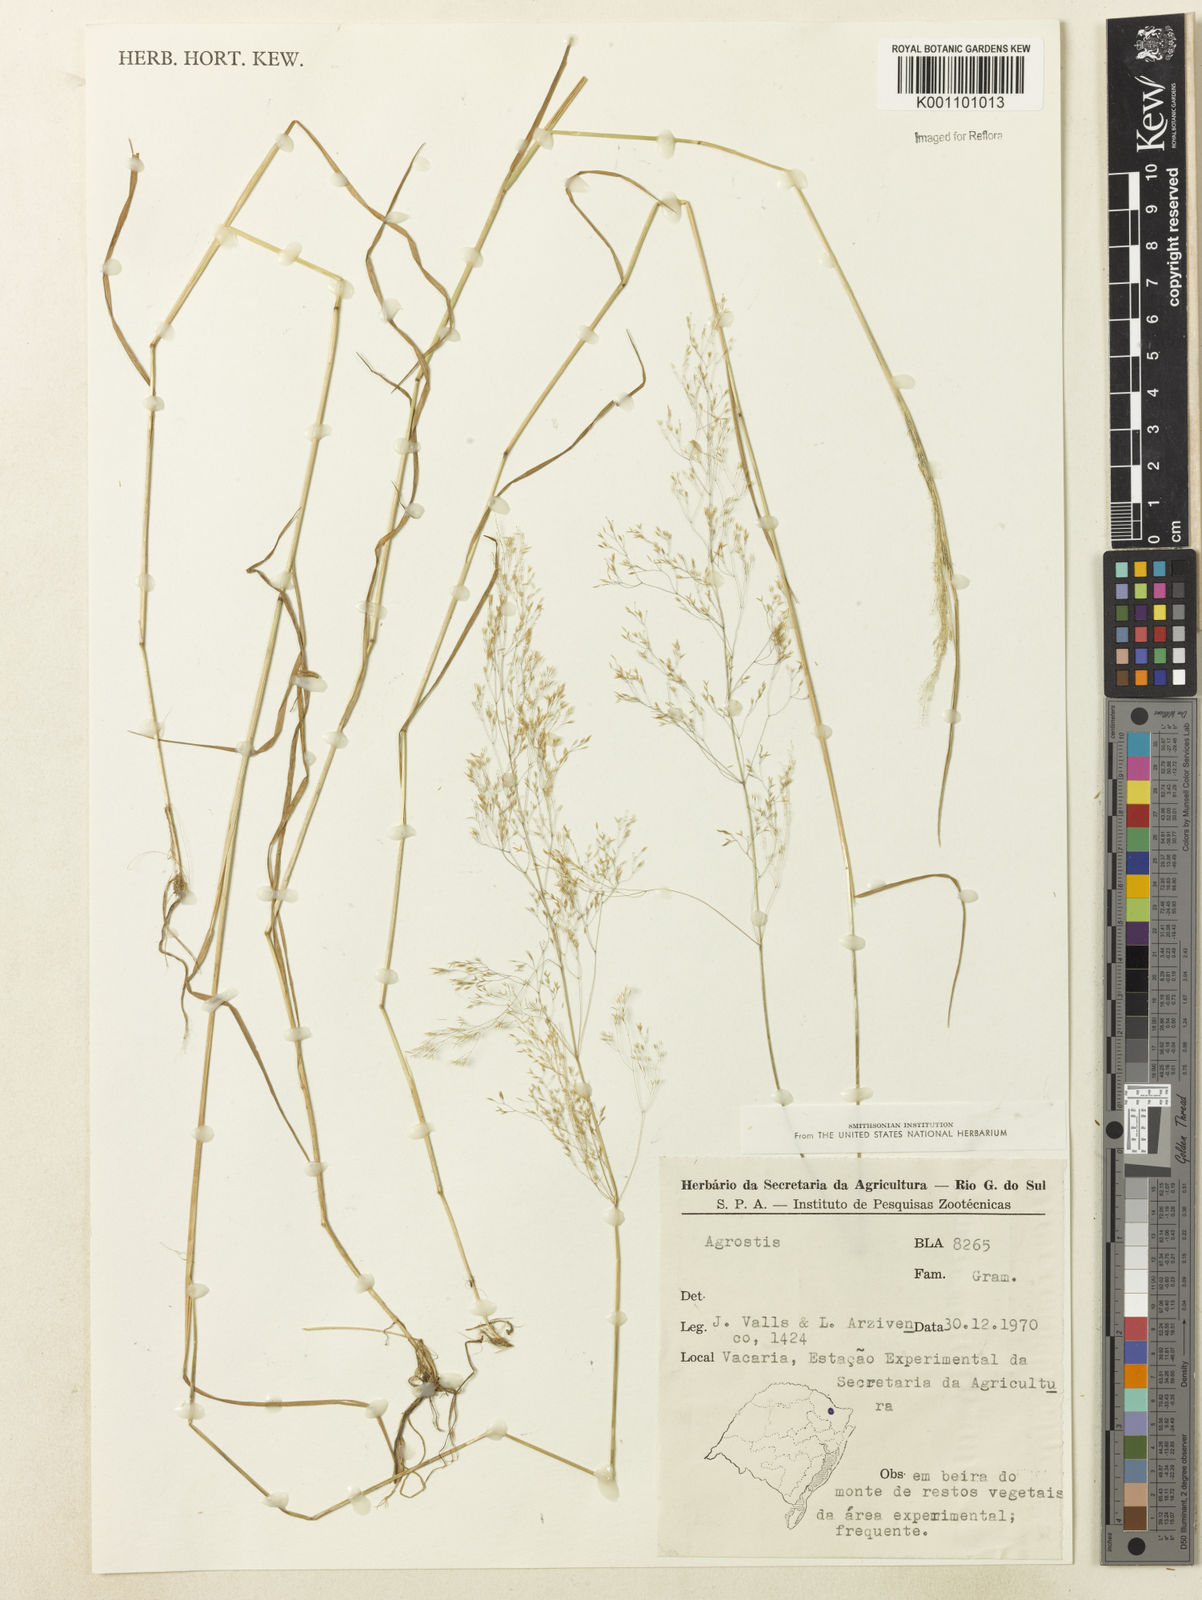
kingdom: Plantae
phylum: Tracheophyta
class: Liliopsida
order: Poales
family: Poaceae
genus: Agrostis
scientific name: Agrostis
